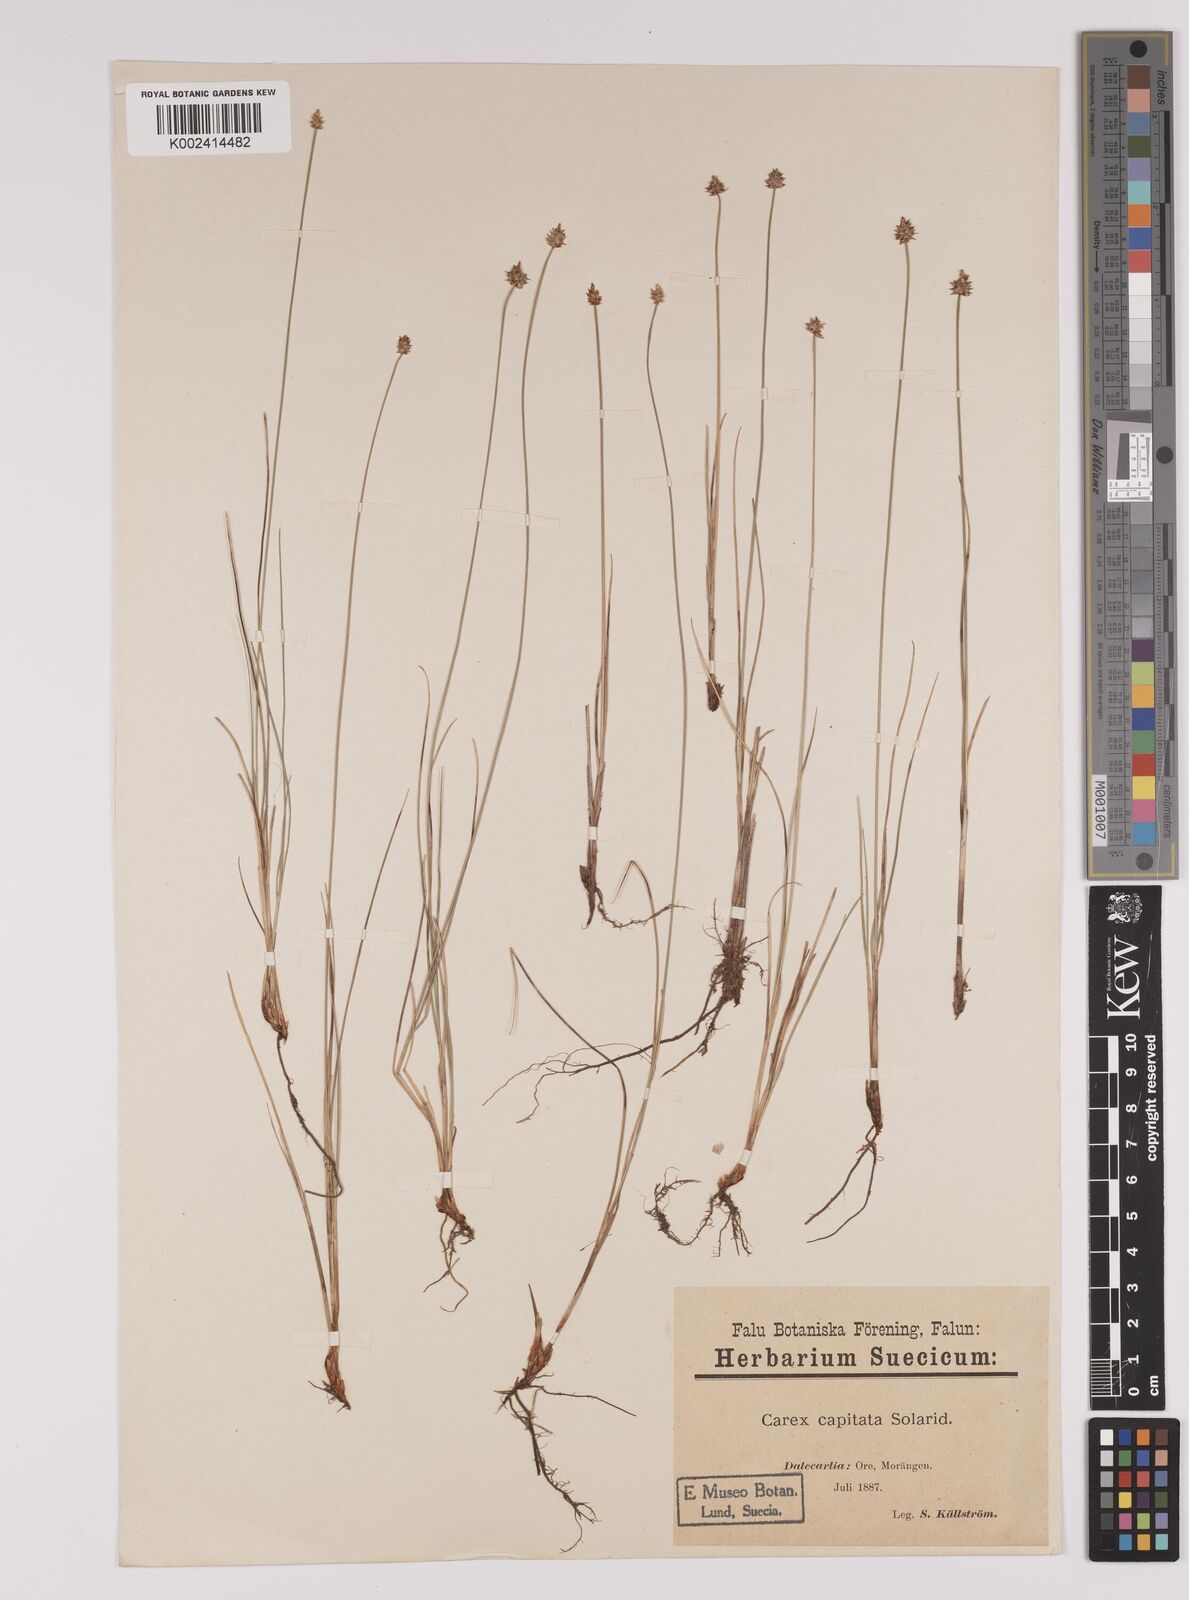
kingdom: Plantae
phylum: Tracheophyta
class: Liliopsida
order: Poales
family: Cyperaceae
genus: Carex
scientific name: Carex capitata
